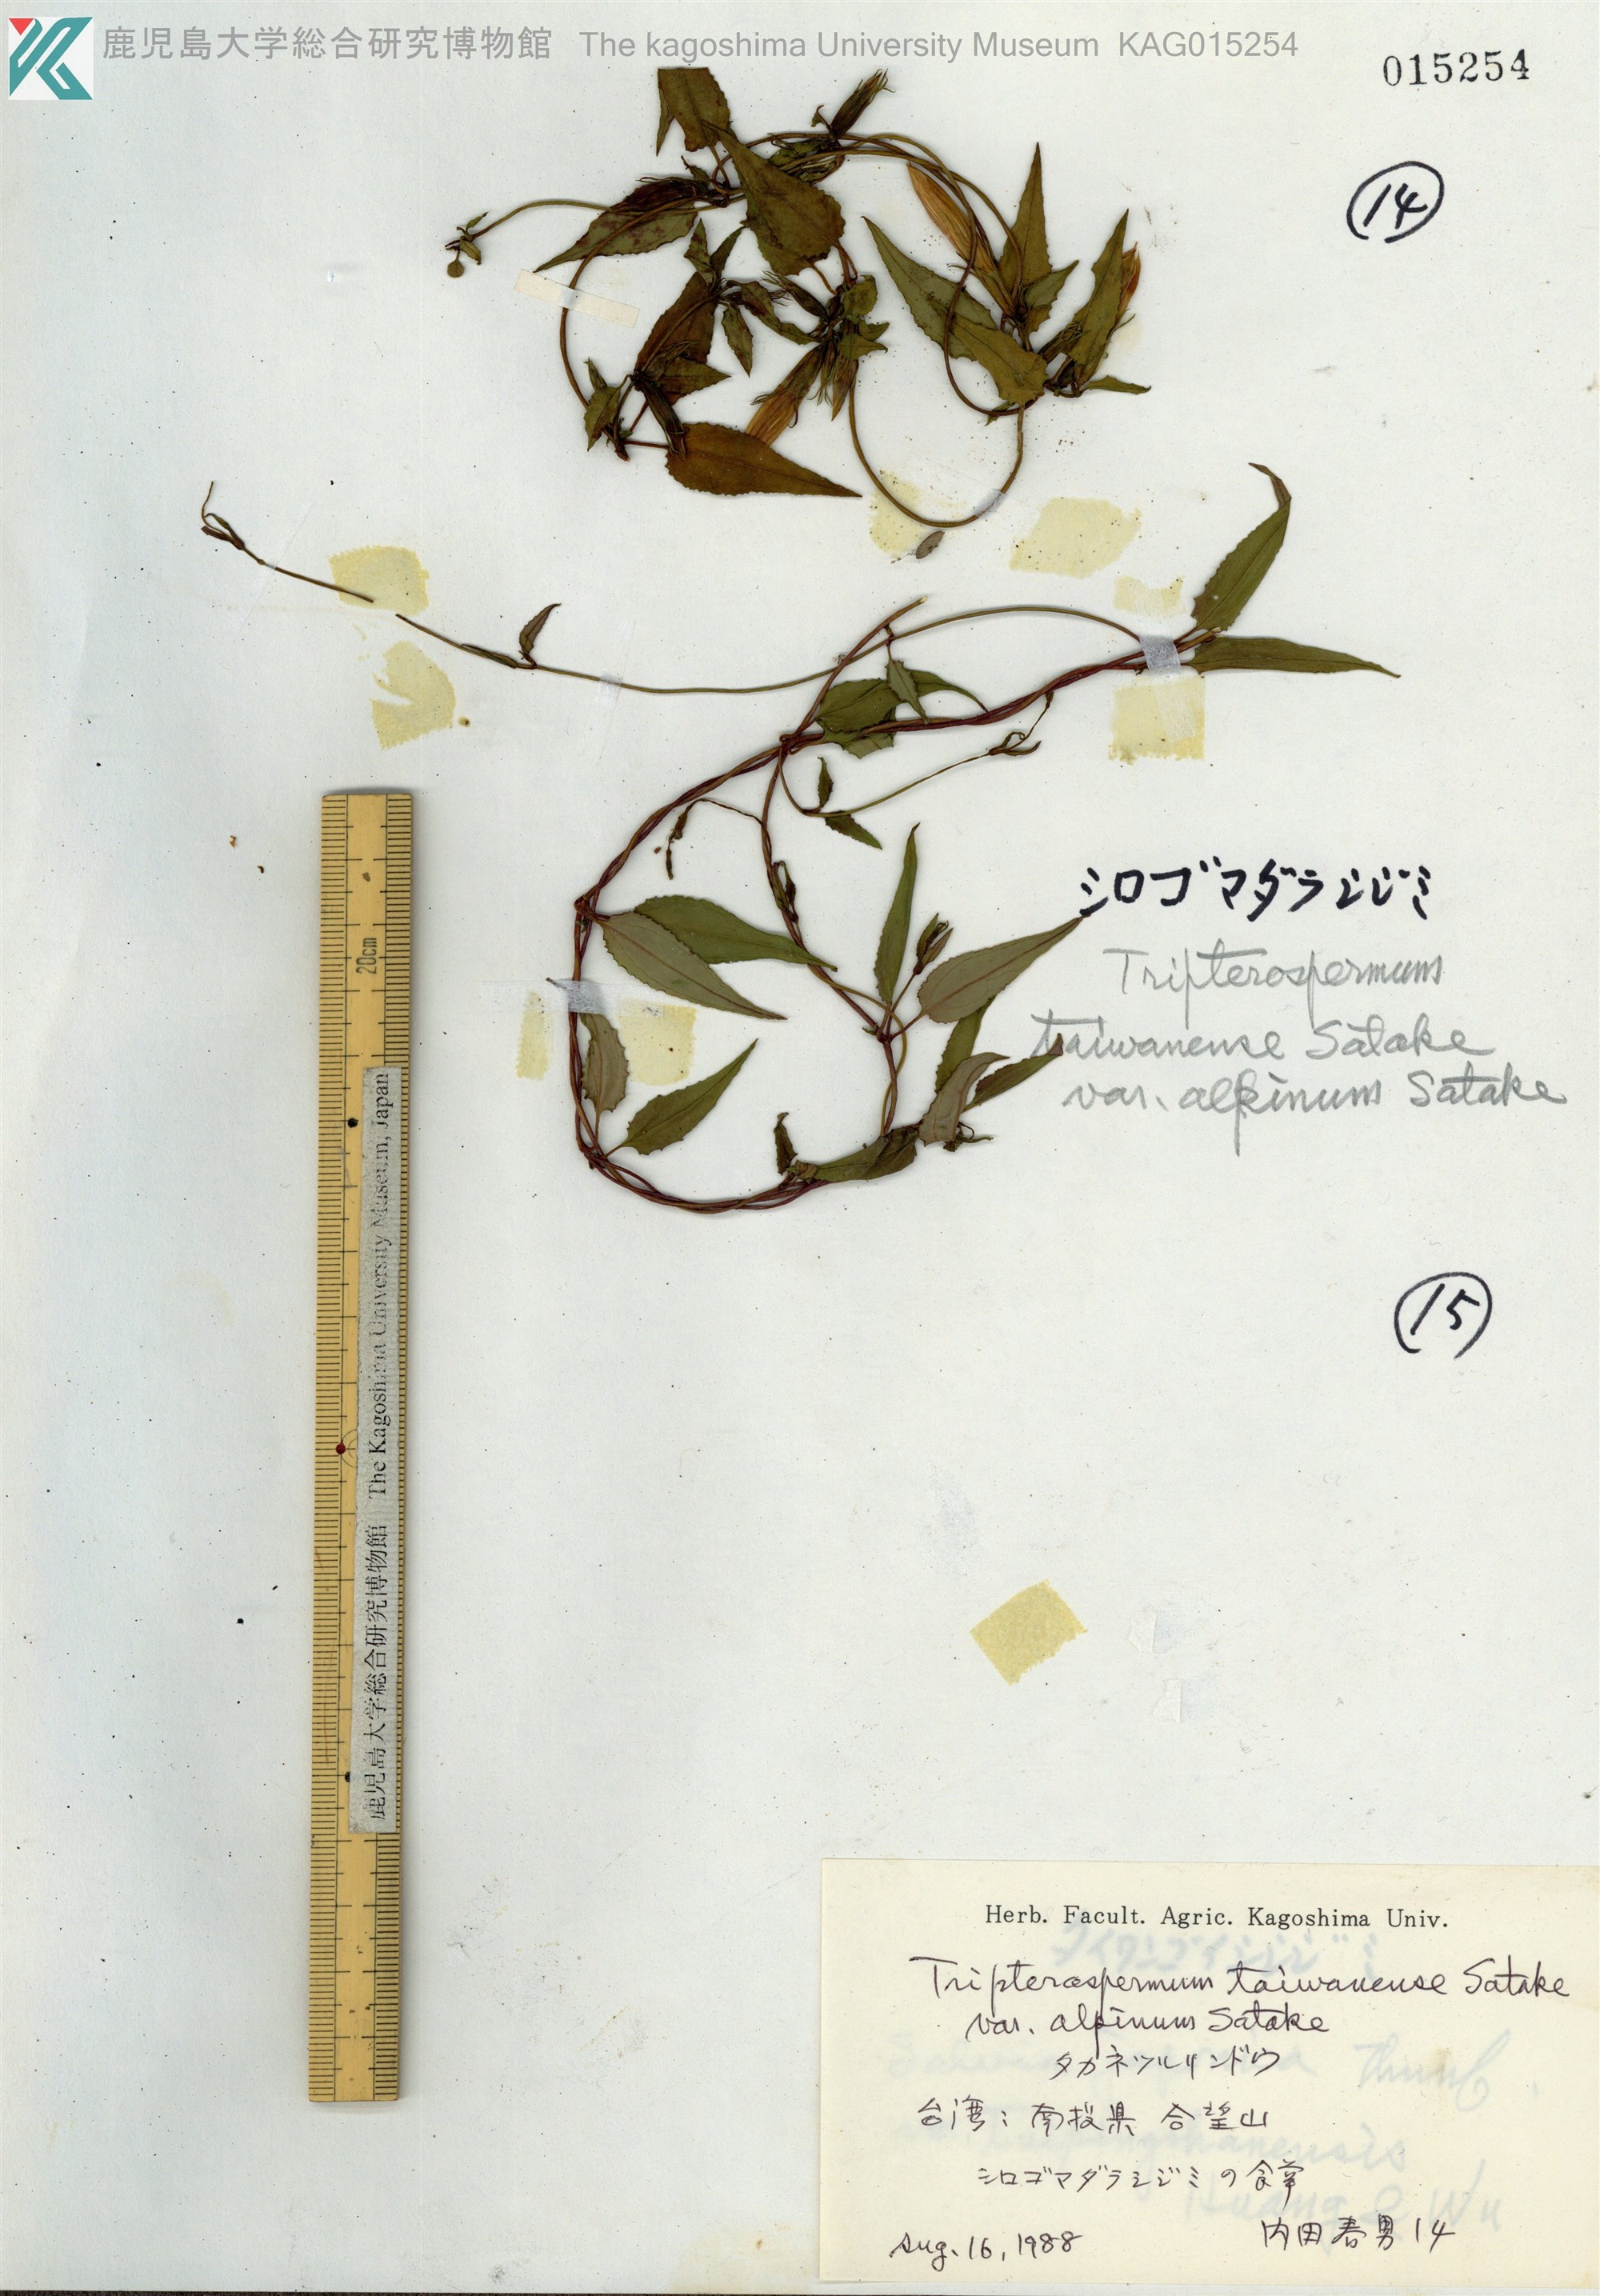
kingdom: Plantae
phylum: Tracheophyta
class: Magnoliopsida
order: Gentianales
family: Gentianaceae
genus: Tripterospermum
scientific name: Tripterospermum taiwanense
